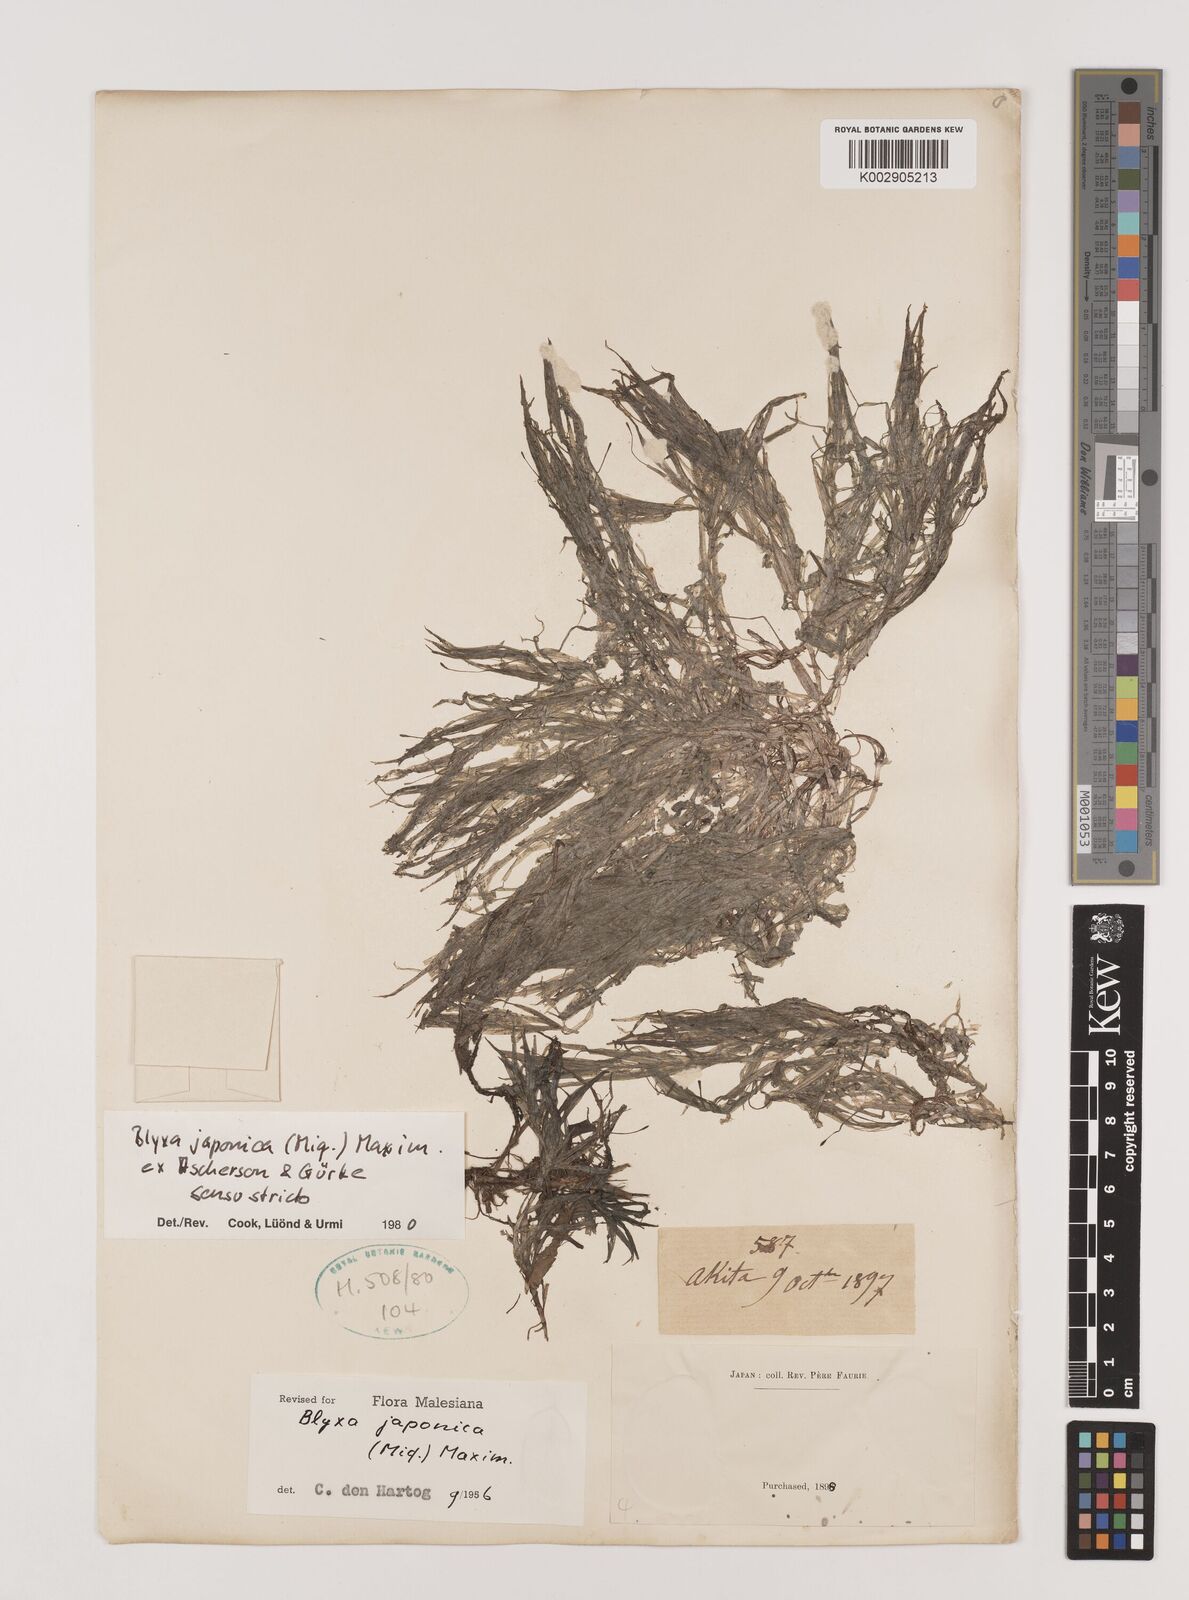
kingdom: Plantae
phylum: Tracheophyta
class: Liliopsida
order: Alismatales
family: Hydrocharitaceae
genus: Blyxa
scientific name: Blyxa japonica
